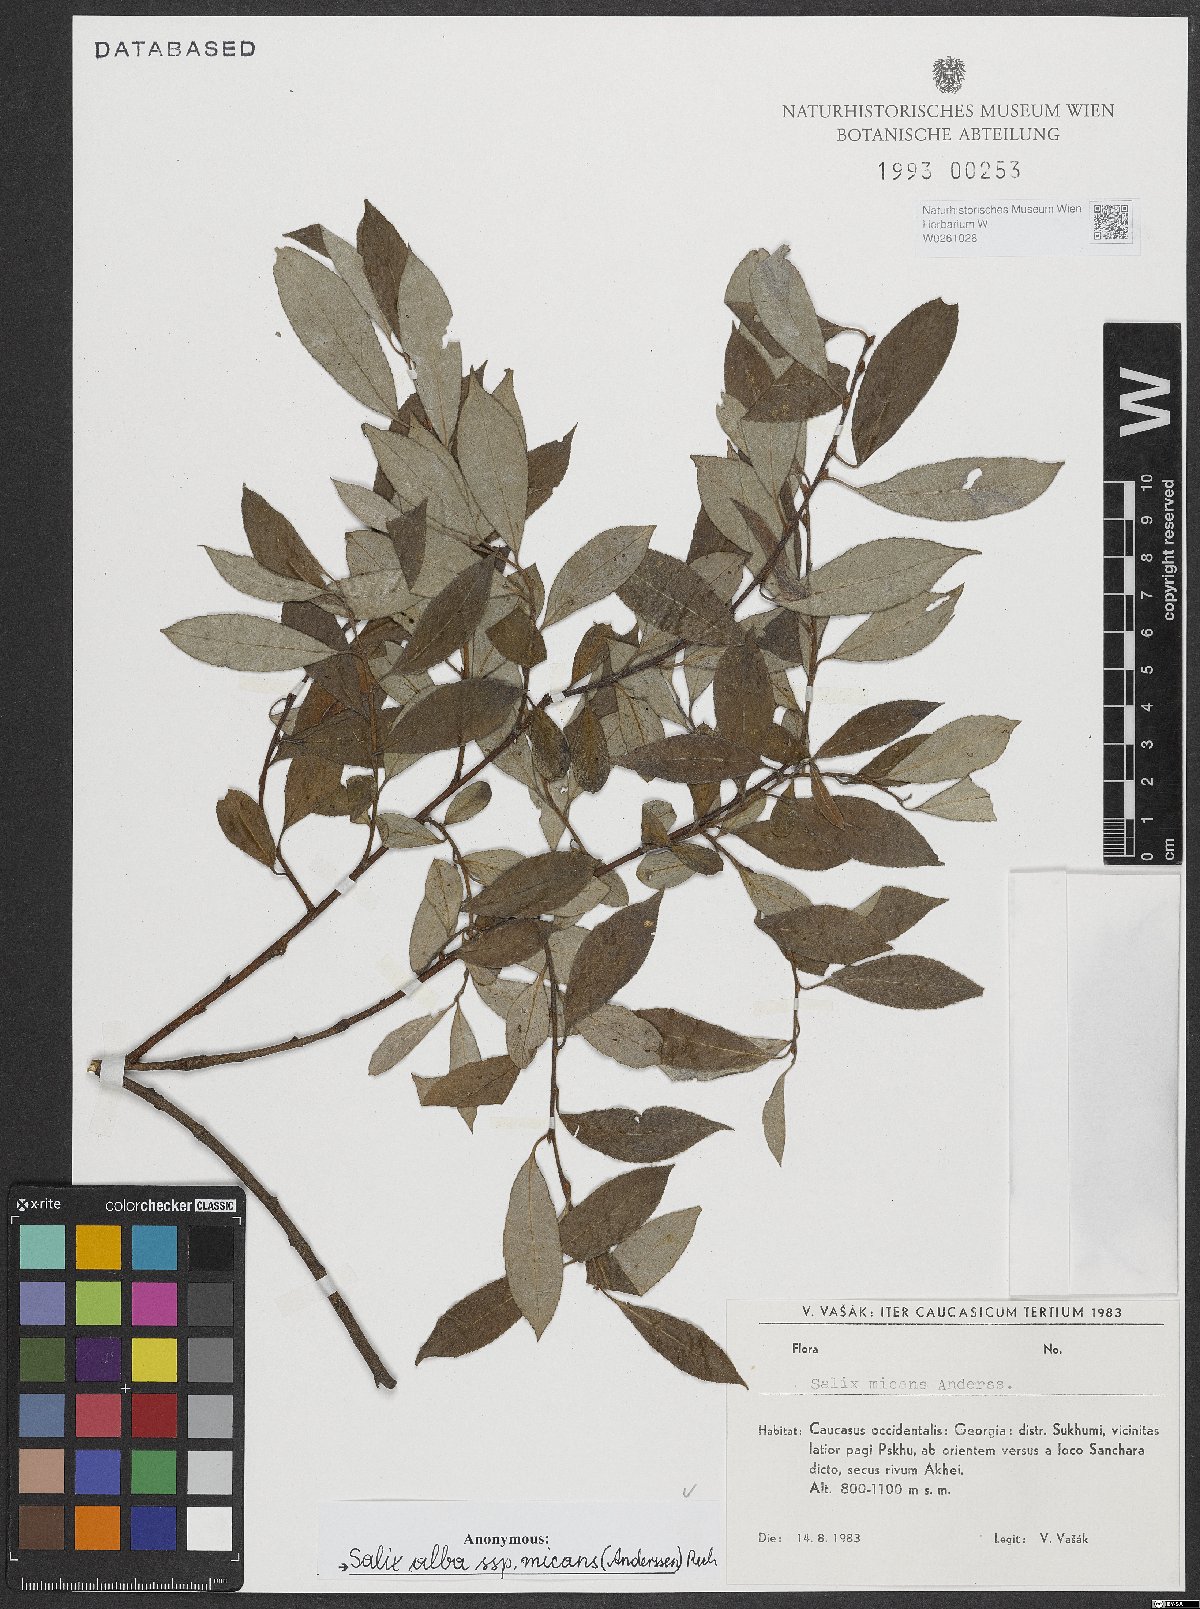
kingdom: Plantae
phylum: Tracheophyta
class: Magnoliopsida
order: Malpighiales
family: Salicaceae
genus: Salix
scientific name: Salix alba
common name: White willow
